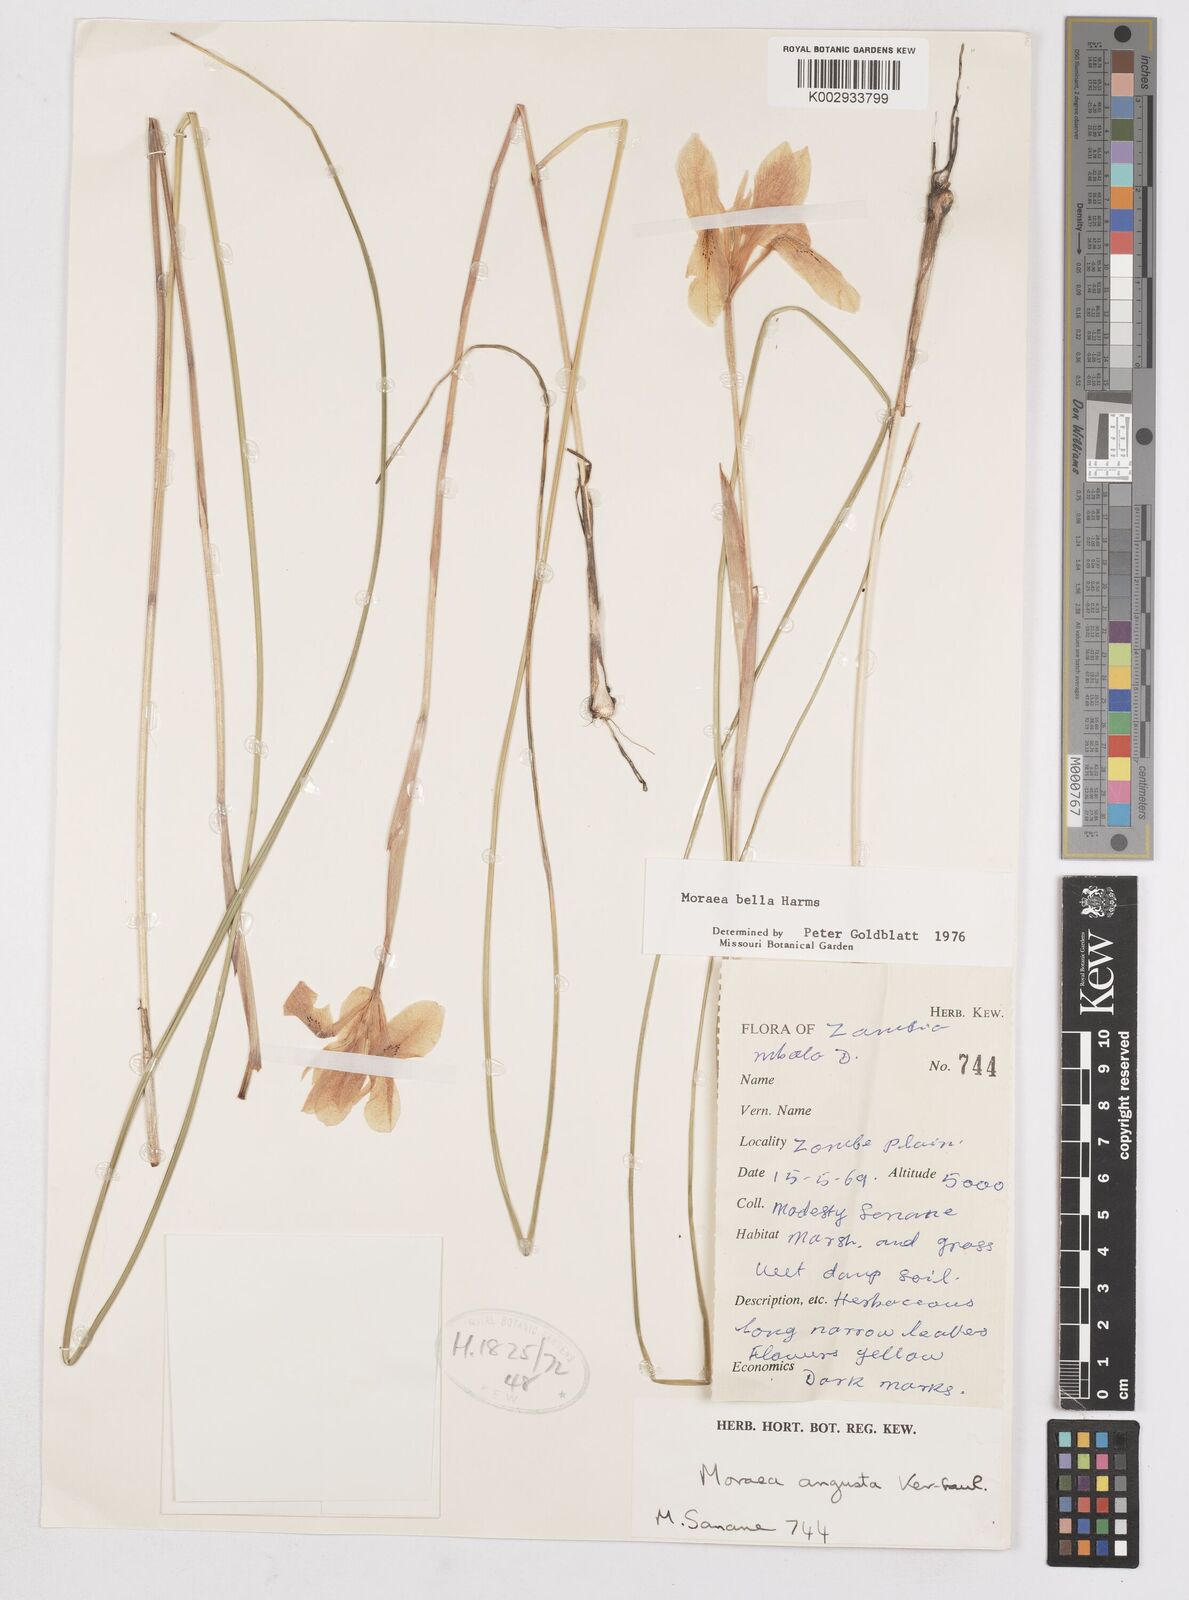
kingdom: Plantae
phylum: Tracheophyta
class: Liliopsida
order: Asparagales
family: Iridaceae
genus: Moraea
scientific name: Moraea bella
